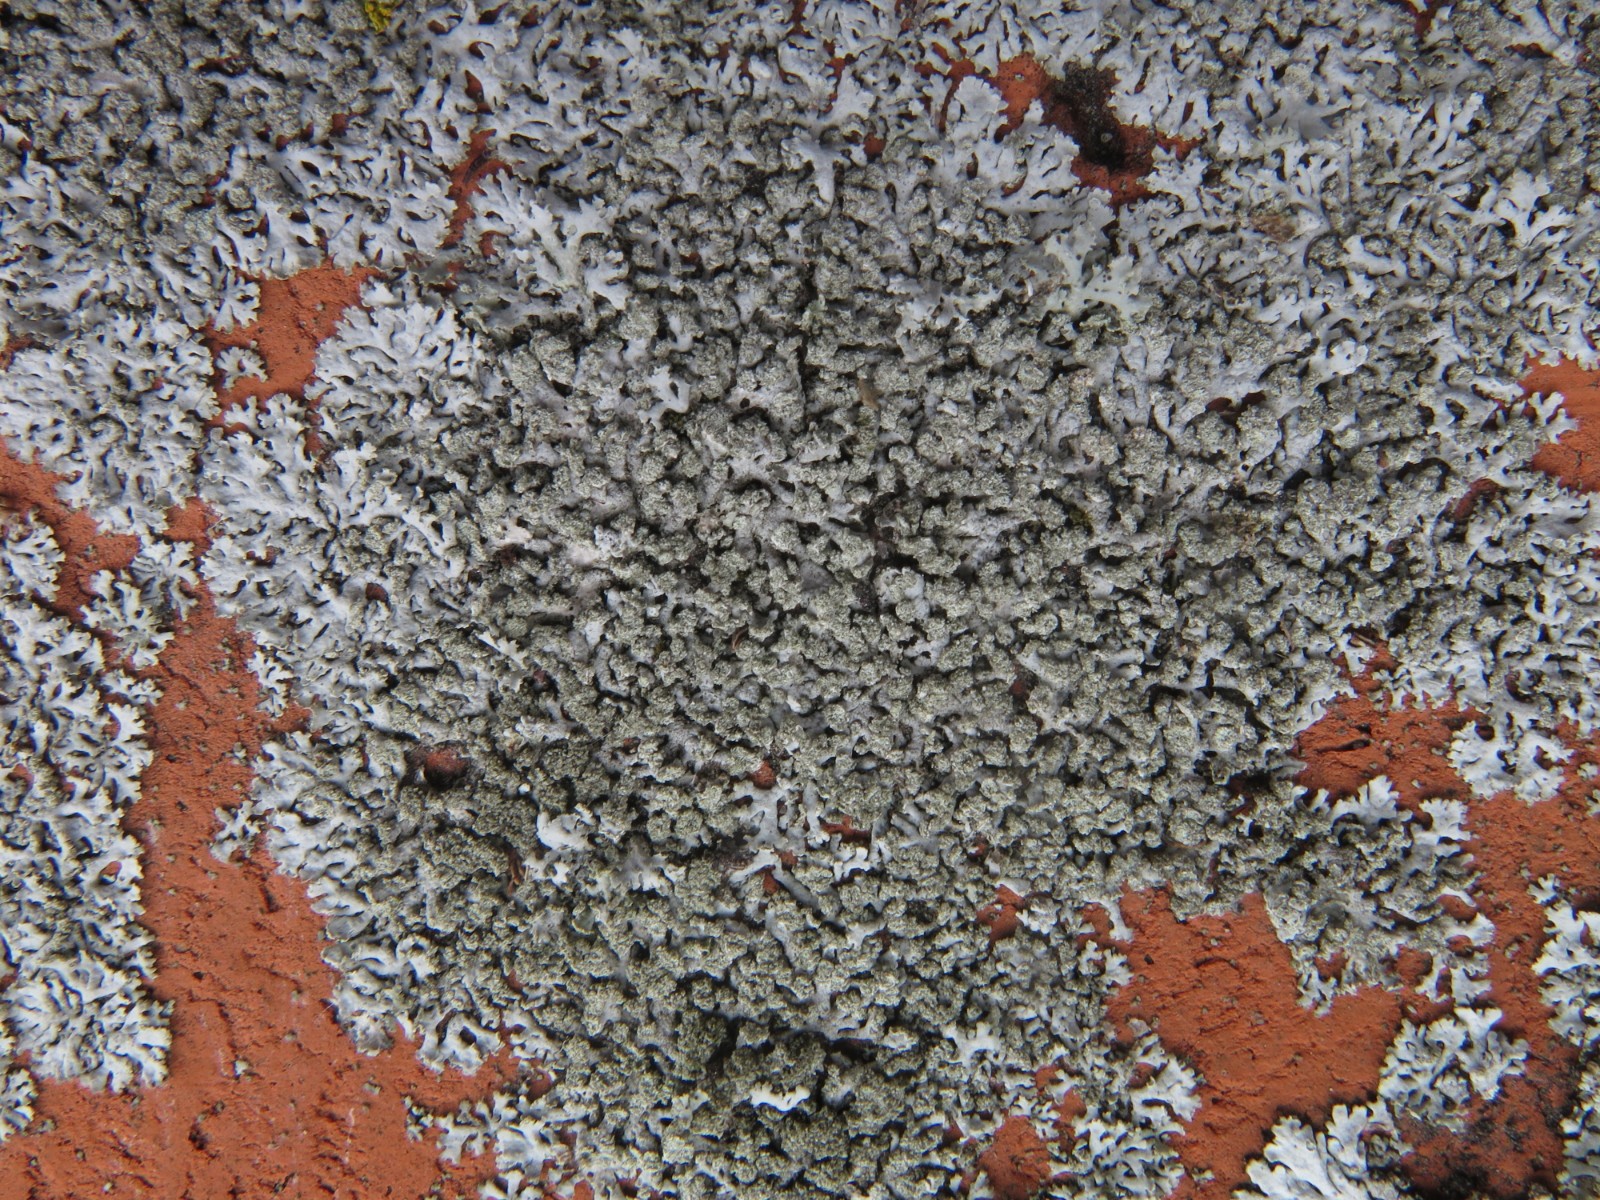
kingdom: Fungi
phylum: Ascomycota
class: Lecanoromycetes
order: Caliciales
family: Physciaceae
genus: Physcia
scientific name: Physcia caesia
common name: blågrå rosetlav
